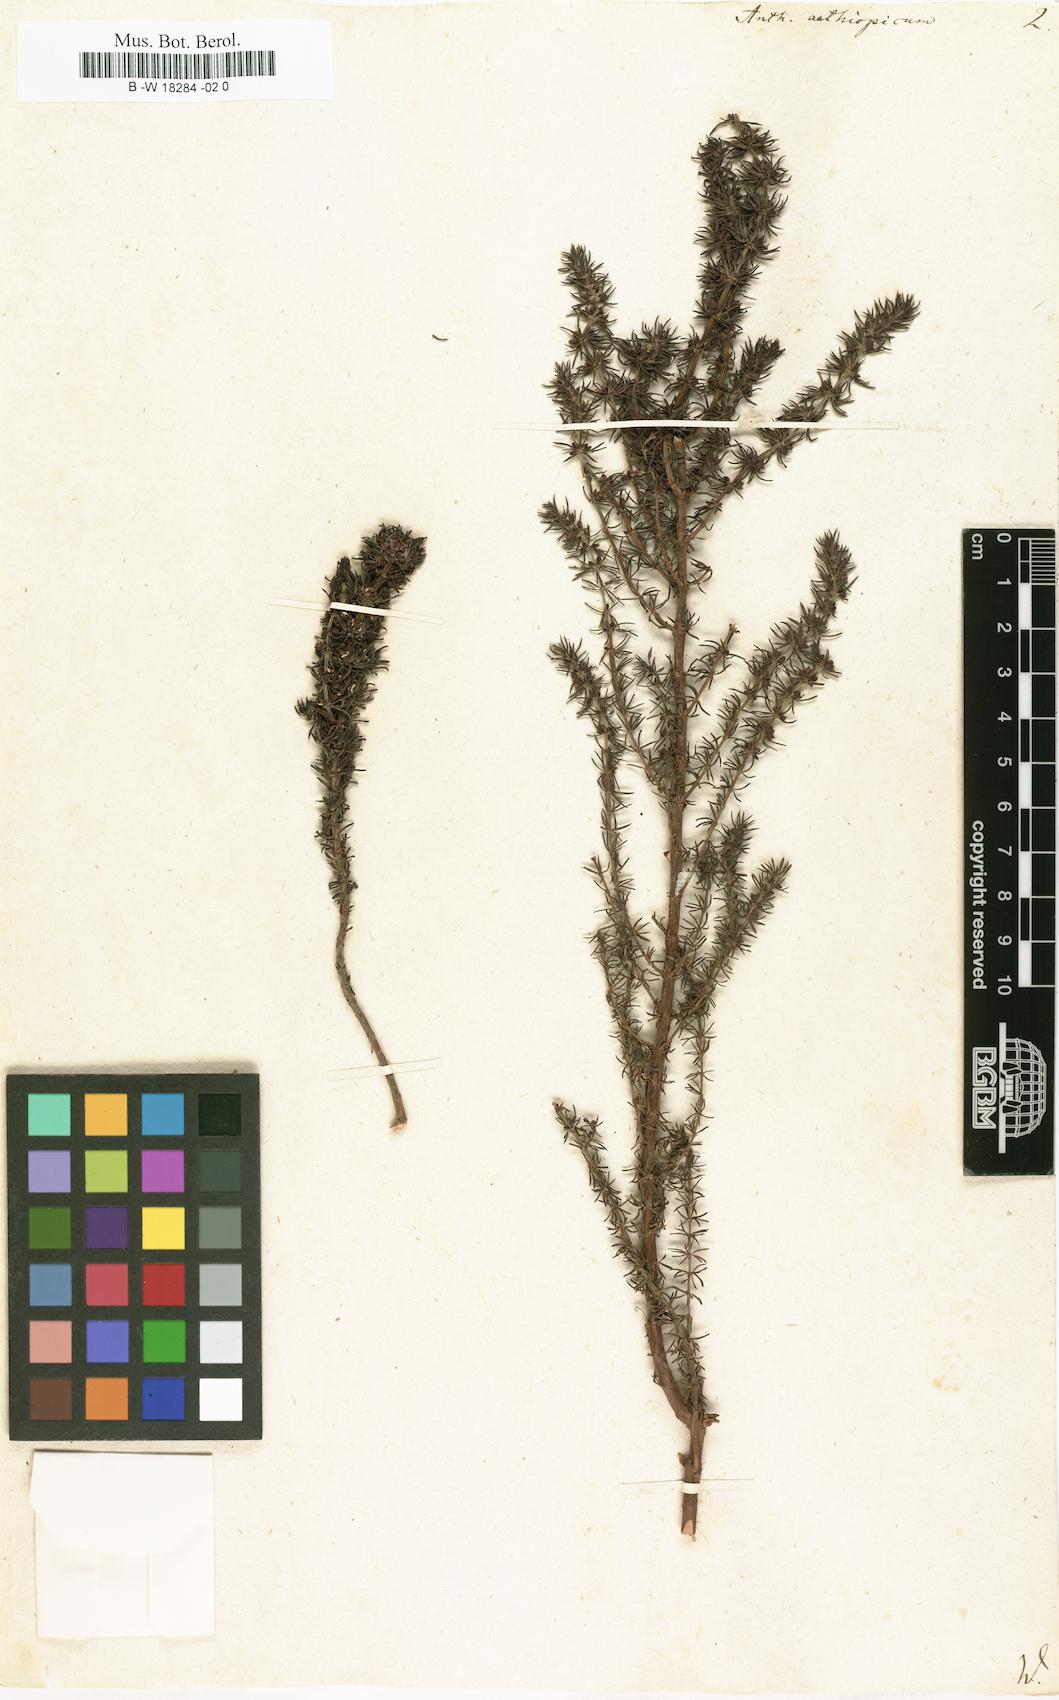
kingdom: Plantae
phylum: Tracheophyta
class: Magnoliopsida
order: Gentianales
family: Rubiaceae
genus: Anthospermum
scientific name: Anthospermum aethiopicum
